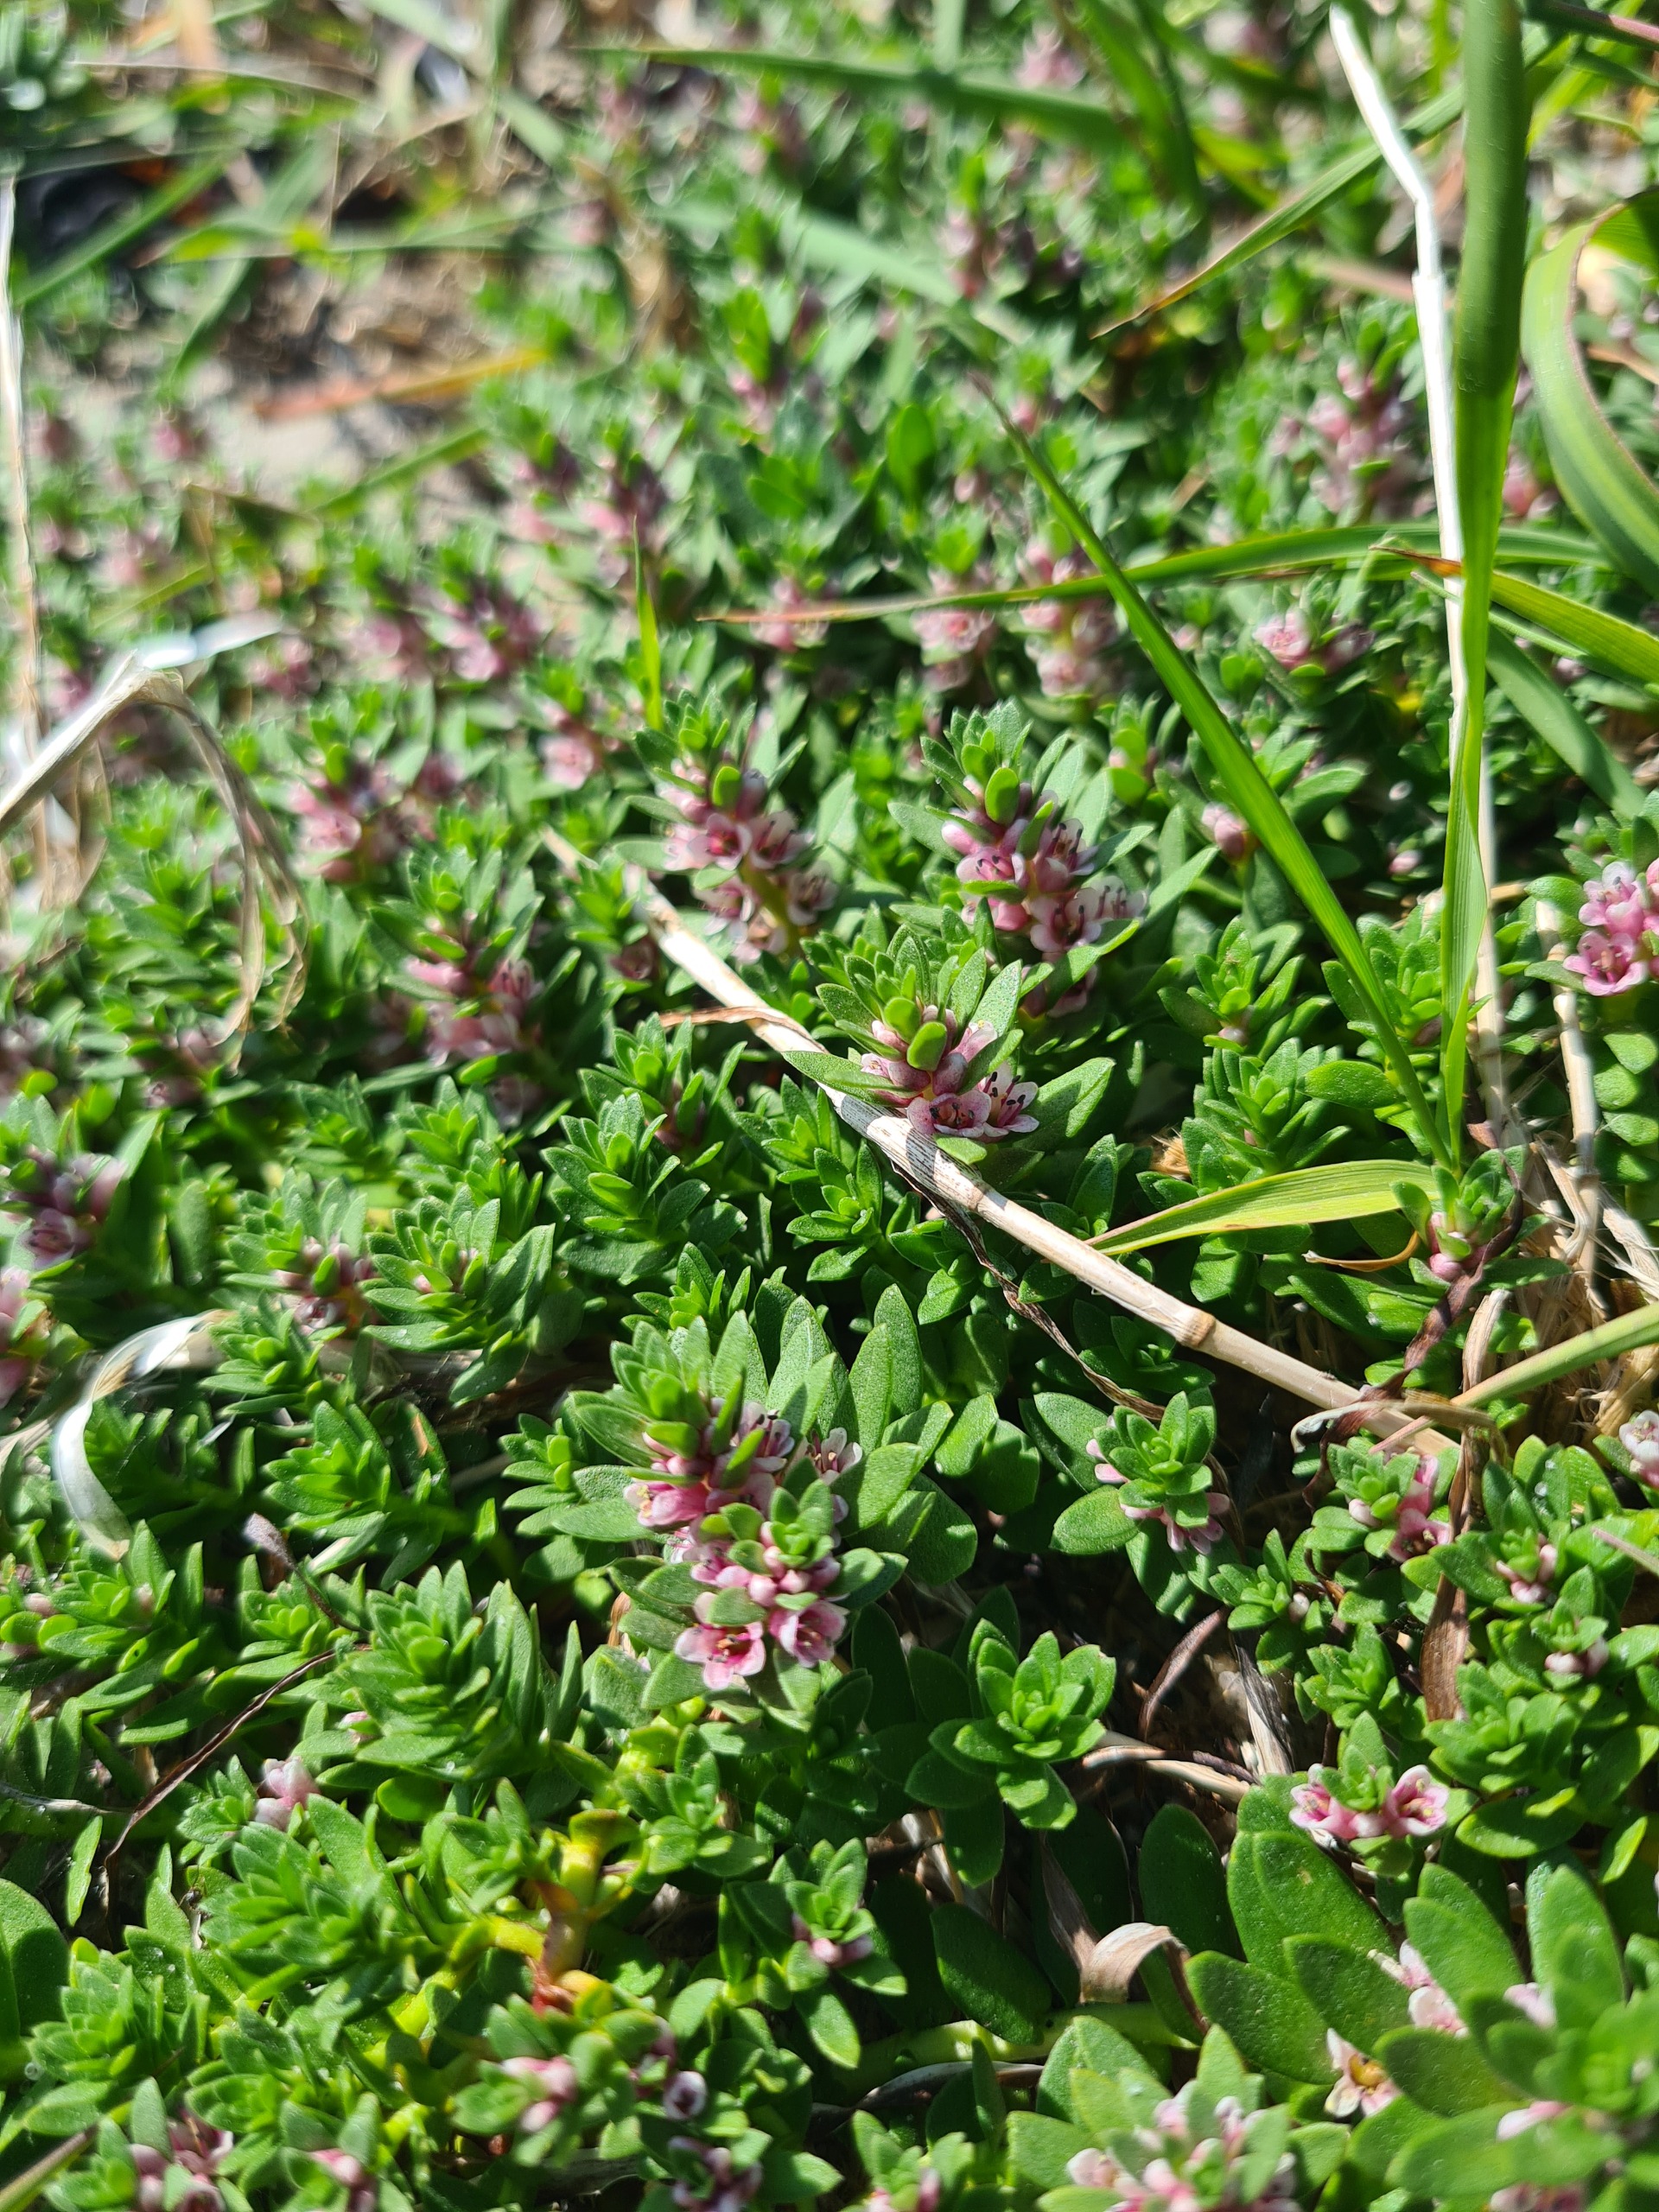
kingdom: Plantae
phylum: Tracheophyta
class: Magnoliopsida
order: Ericales
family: Primulaceae
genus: Lysimachia
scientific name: Lysimachia maritima
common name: Sandkryb
